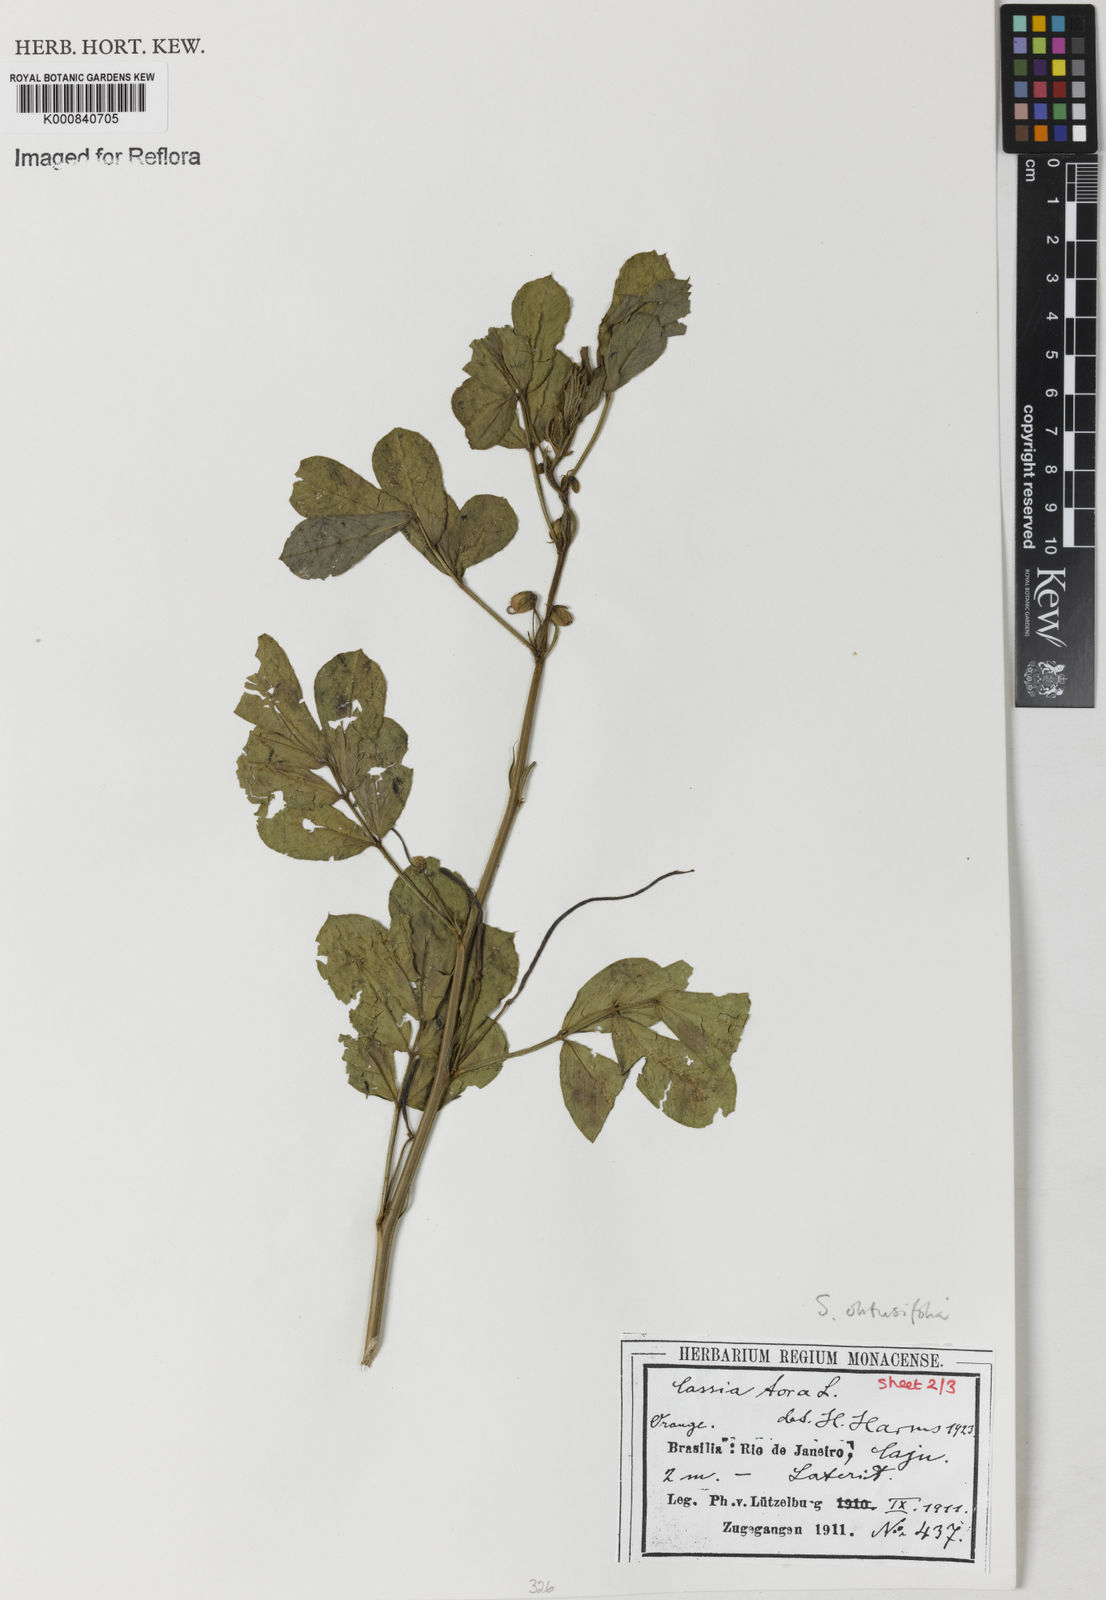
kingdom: Plantae
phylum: Tracheophyta
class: Magnoliopsida
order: Fabales
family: Fabaceae
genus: Senna
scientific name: Senna obtusifolia
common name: Java-bean
